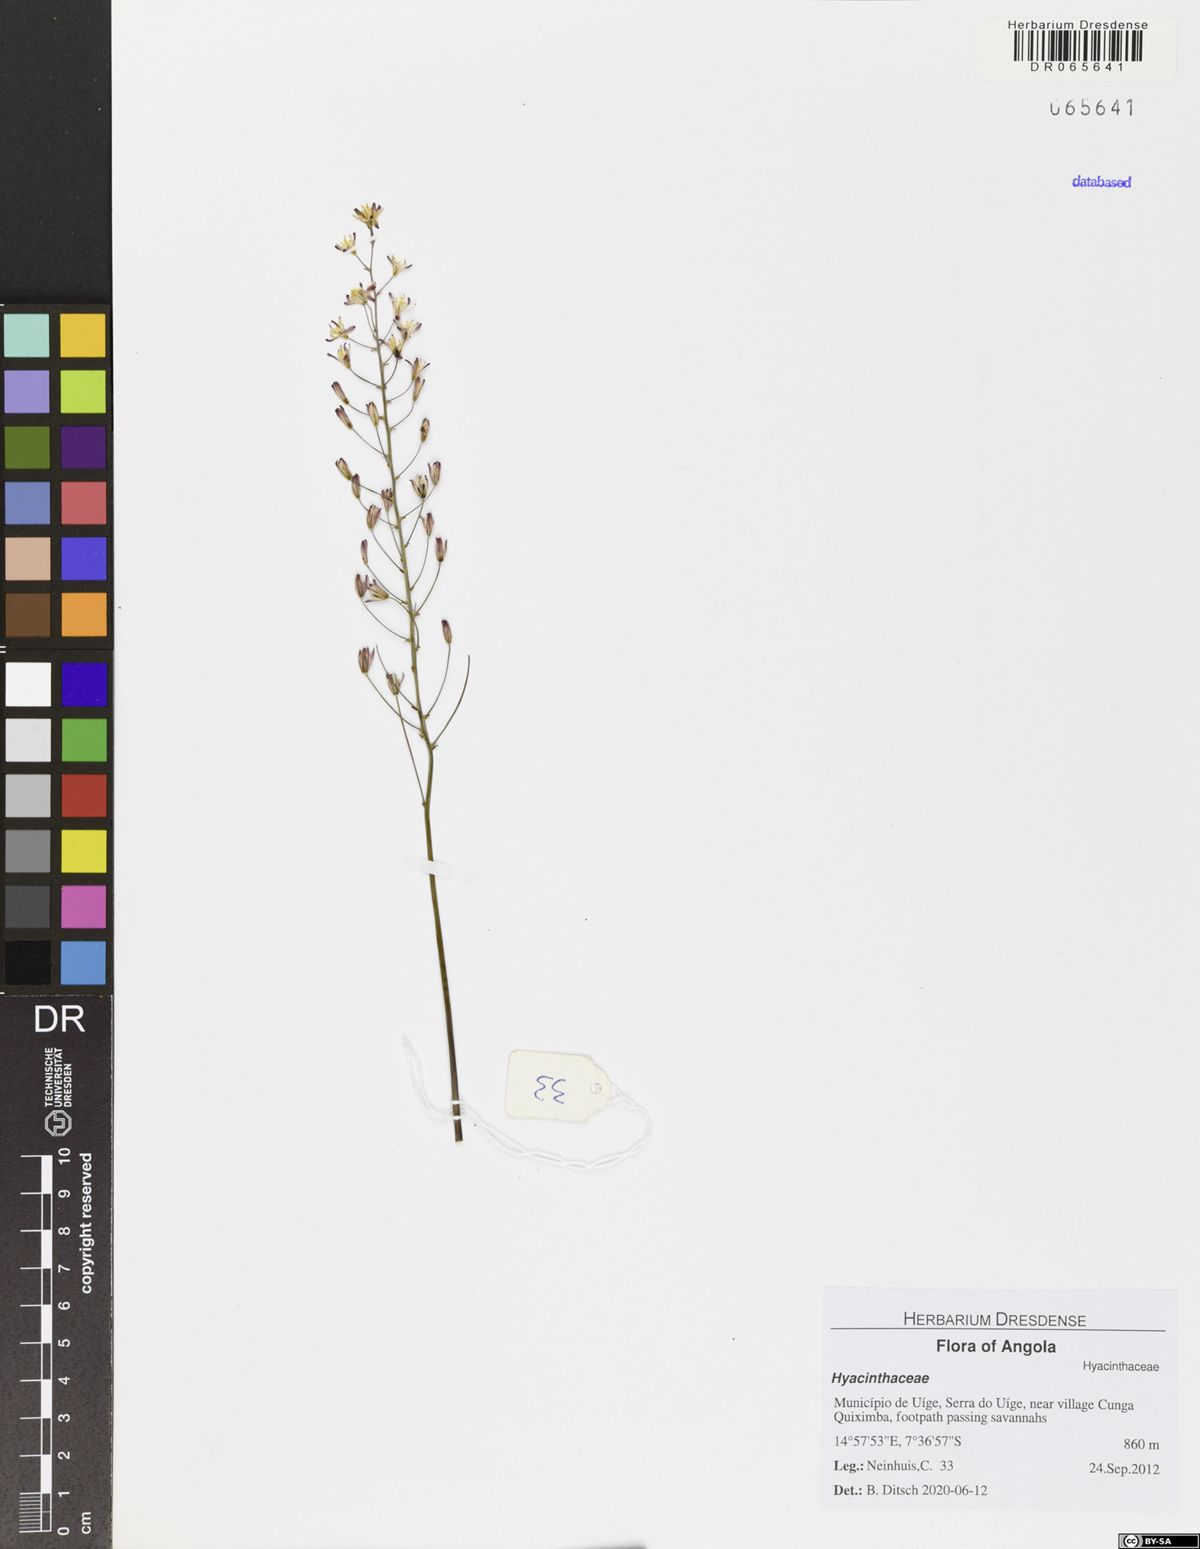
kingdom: Plantae
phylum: Tracheophyta
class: Liliopsida
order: Asparagales
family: Hyacinthaceae
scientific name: Hyacinthaceae
